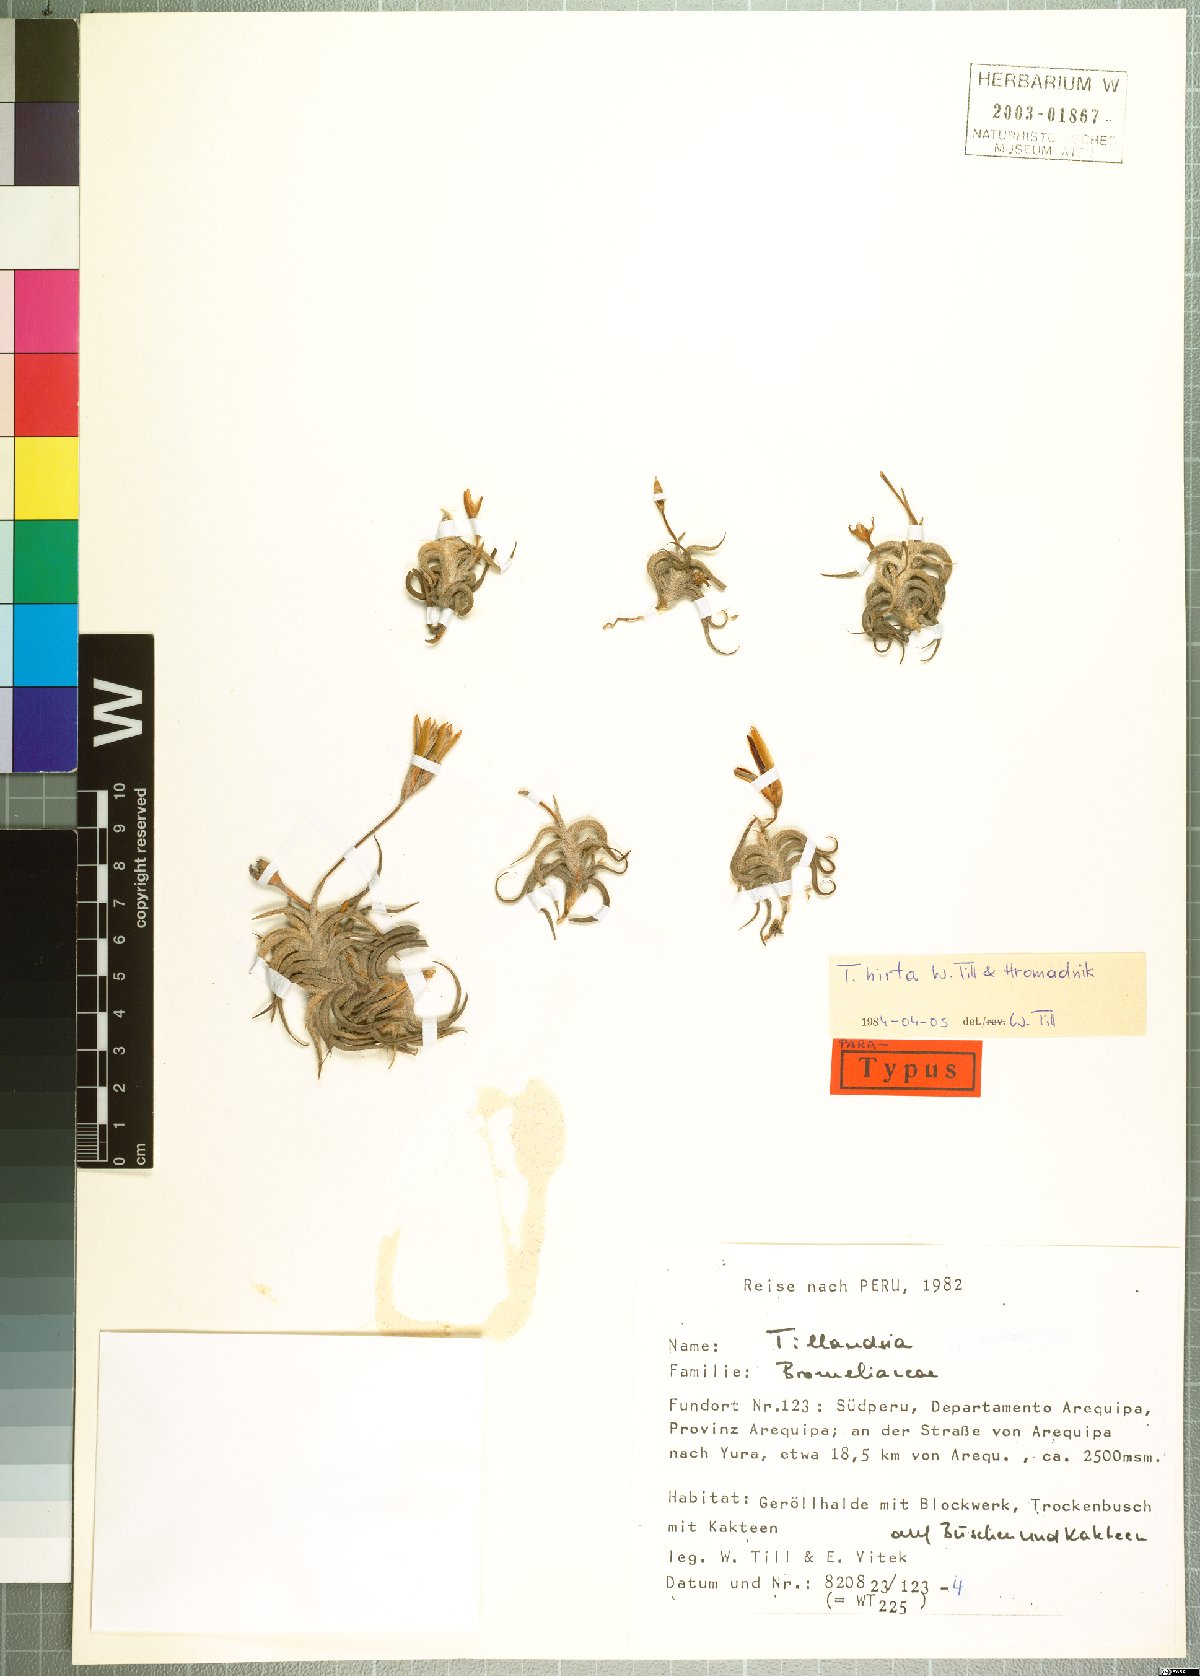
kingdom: Plantae
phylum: Tracheophyta
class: Liliopsida
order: Poales
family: Bromeliaceae
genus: Tillandsia
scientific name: Tillandsia hirta
